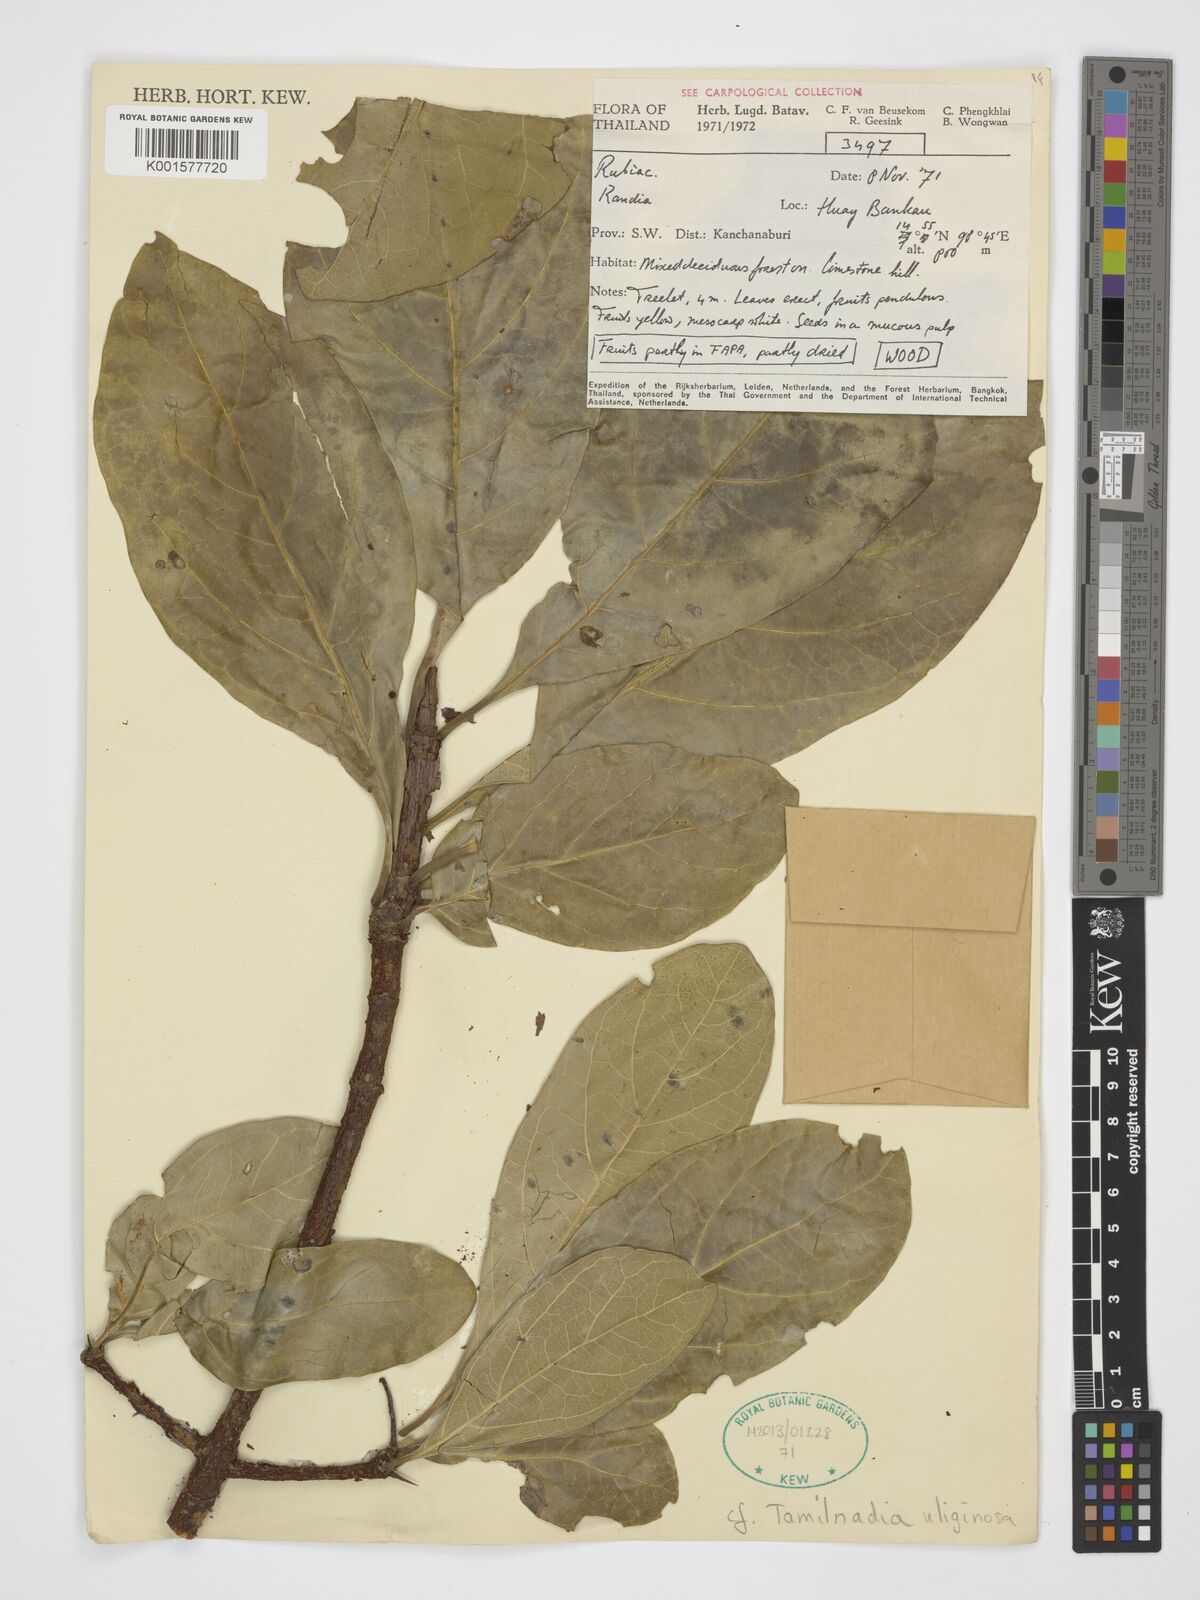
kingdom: Plantae
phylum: Tracheophyta
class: Magnoliopsida
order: Gentianales
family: Rubiaceae
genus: Randia
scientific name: Randia
